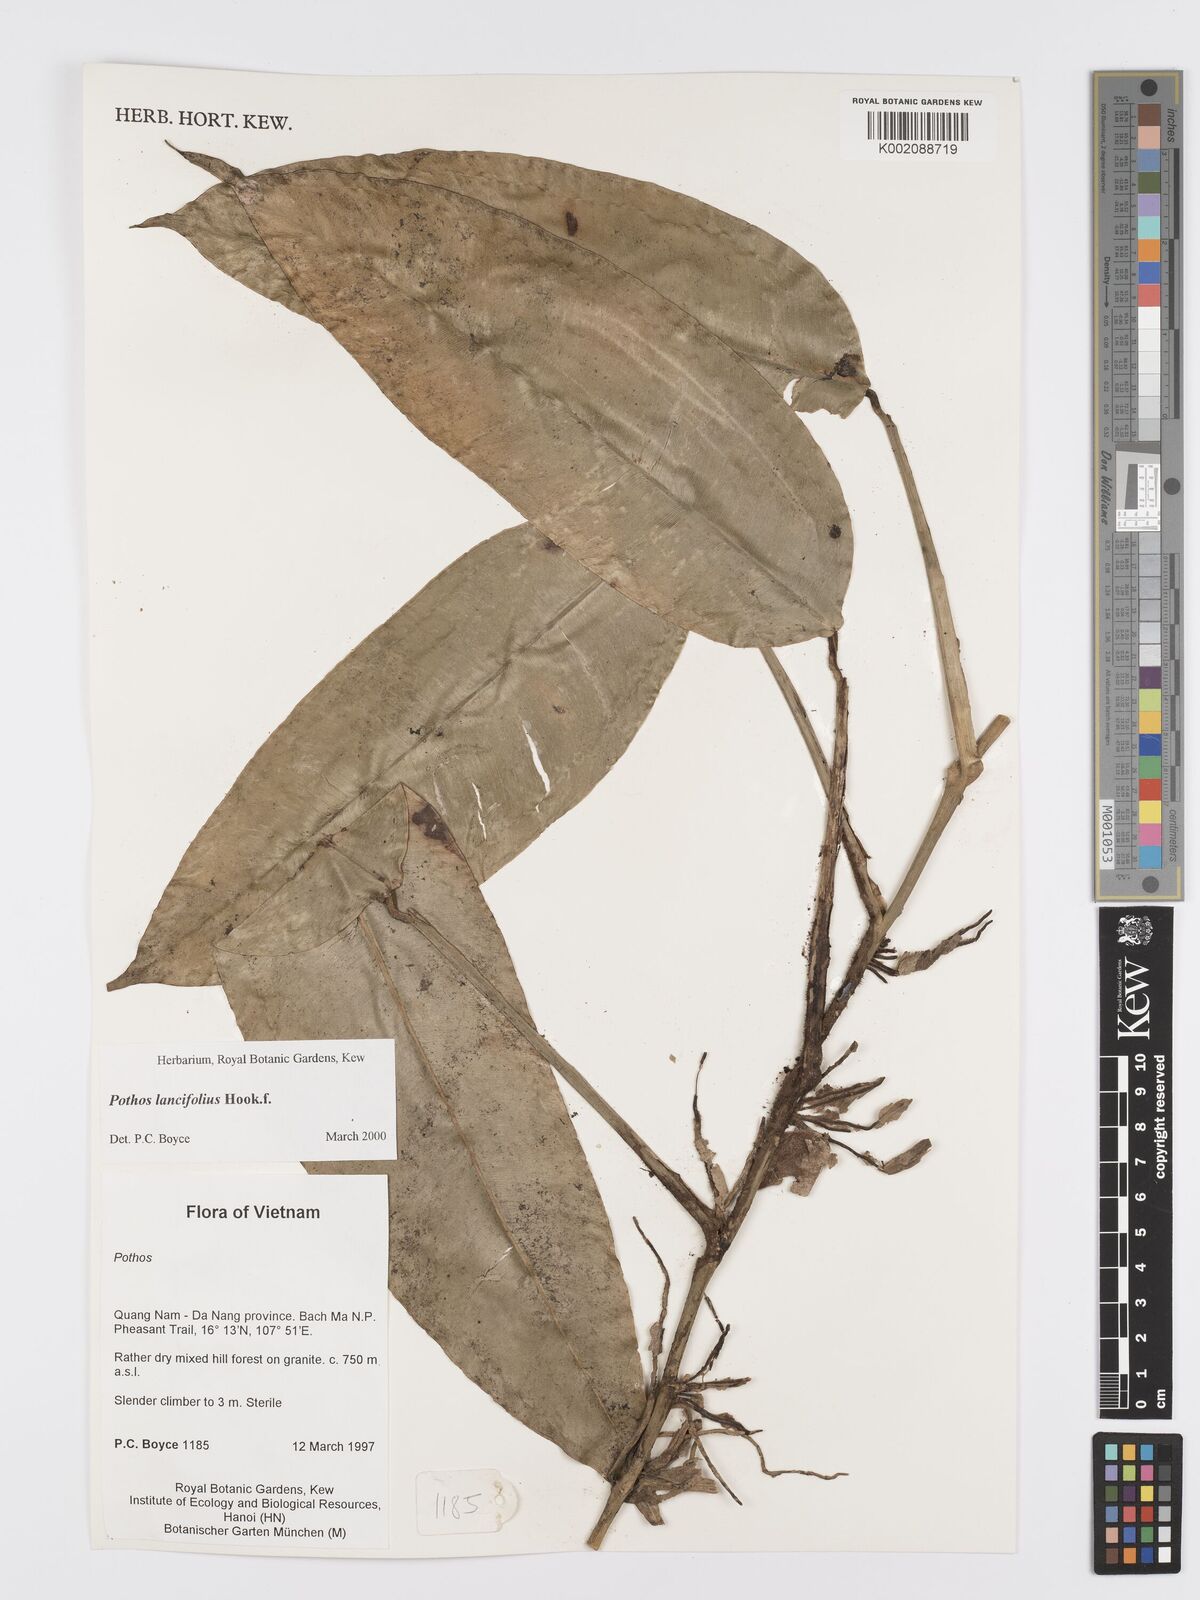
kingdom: Plantae
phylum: Tracheophyta
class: Liliopsida
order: Alismatales
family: Araceae
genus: Pothos
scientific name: Pothos lancifolius
